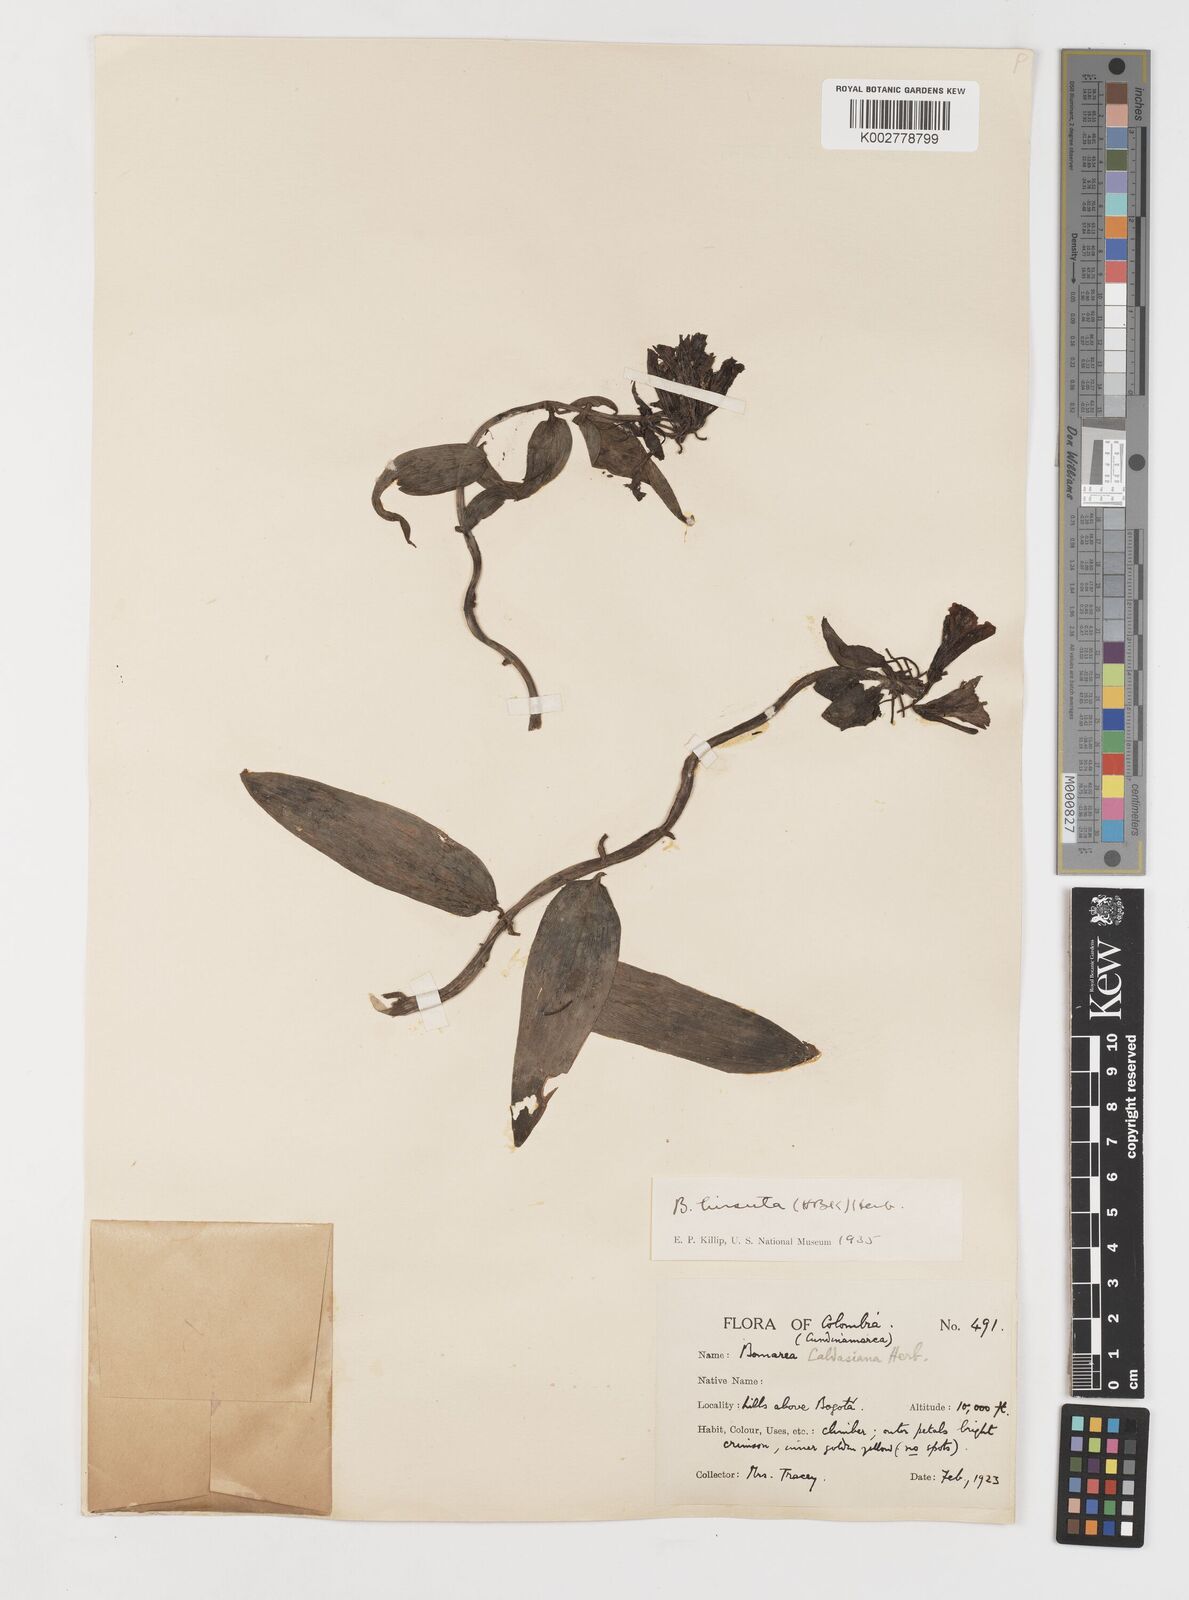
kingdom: Plantae
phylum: Tracheophyta
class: Liliopsida
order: Liliales
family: Alstroemeriaceae
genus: Bomarea
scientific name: Bomarea hirsuta
